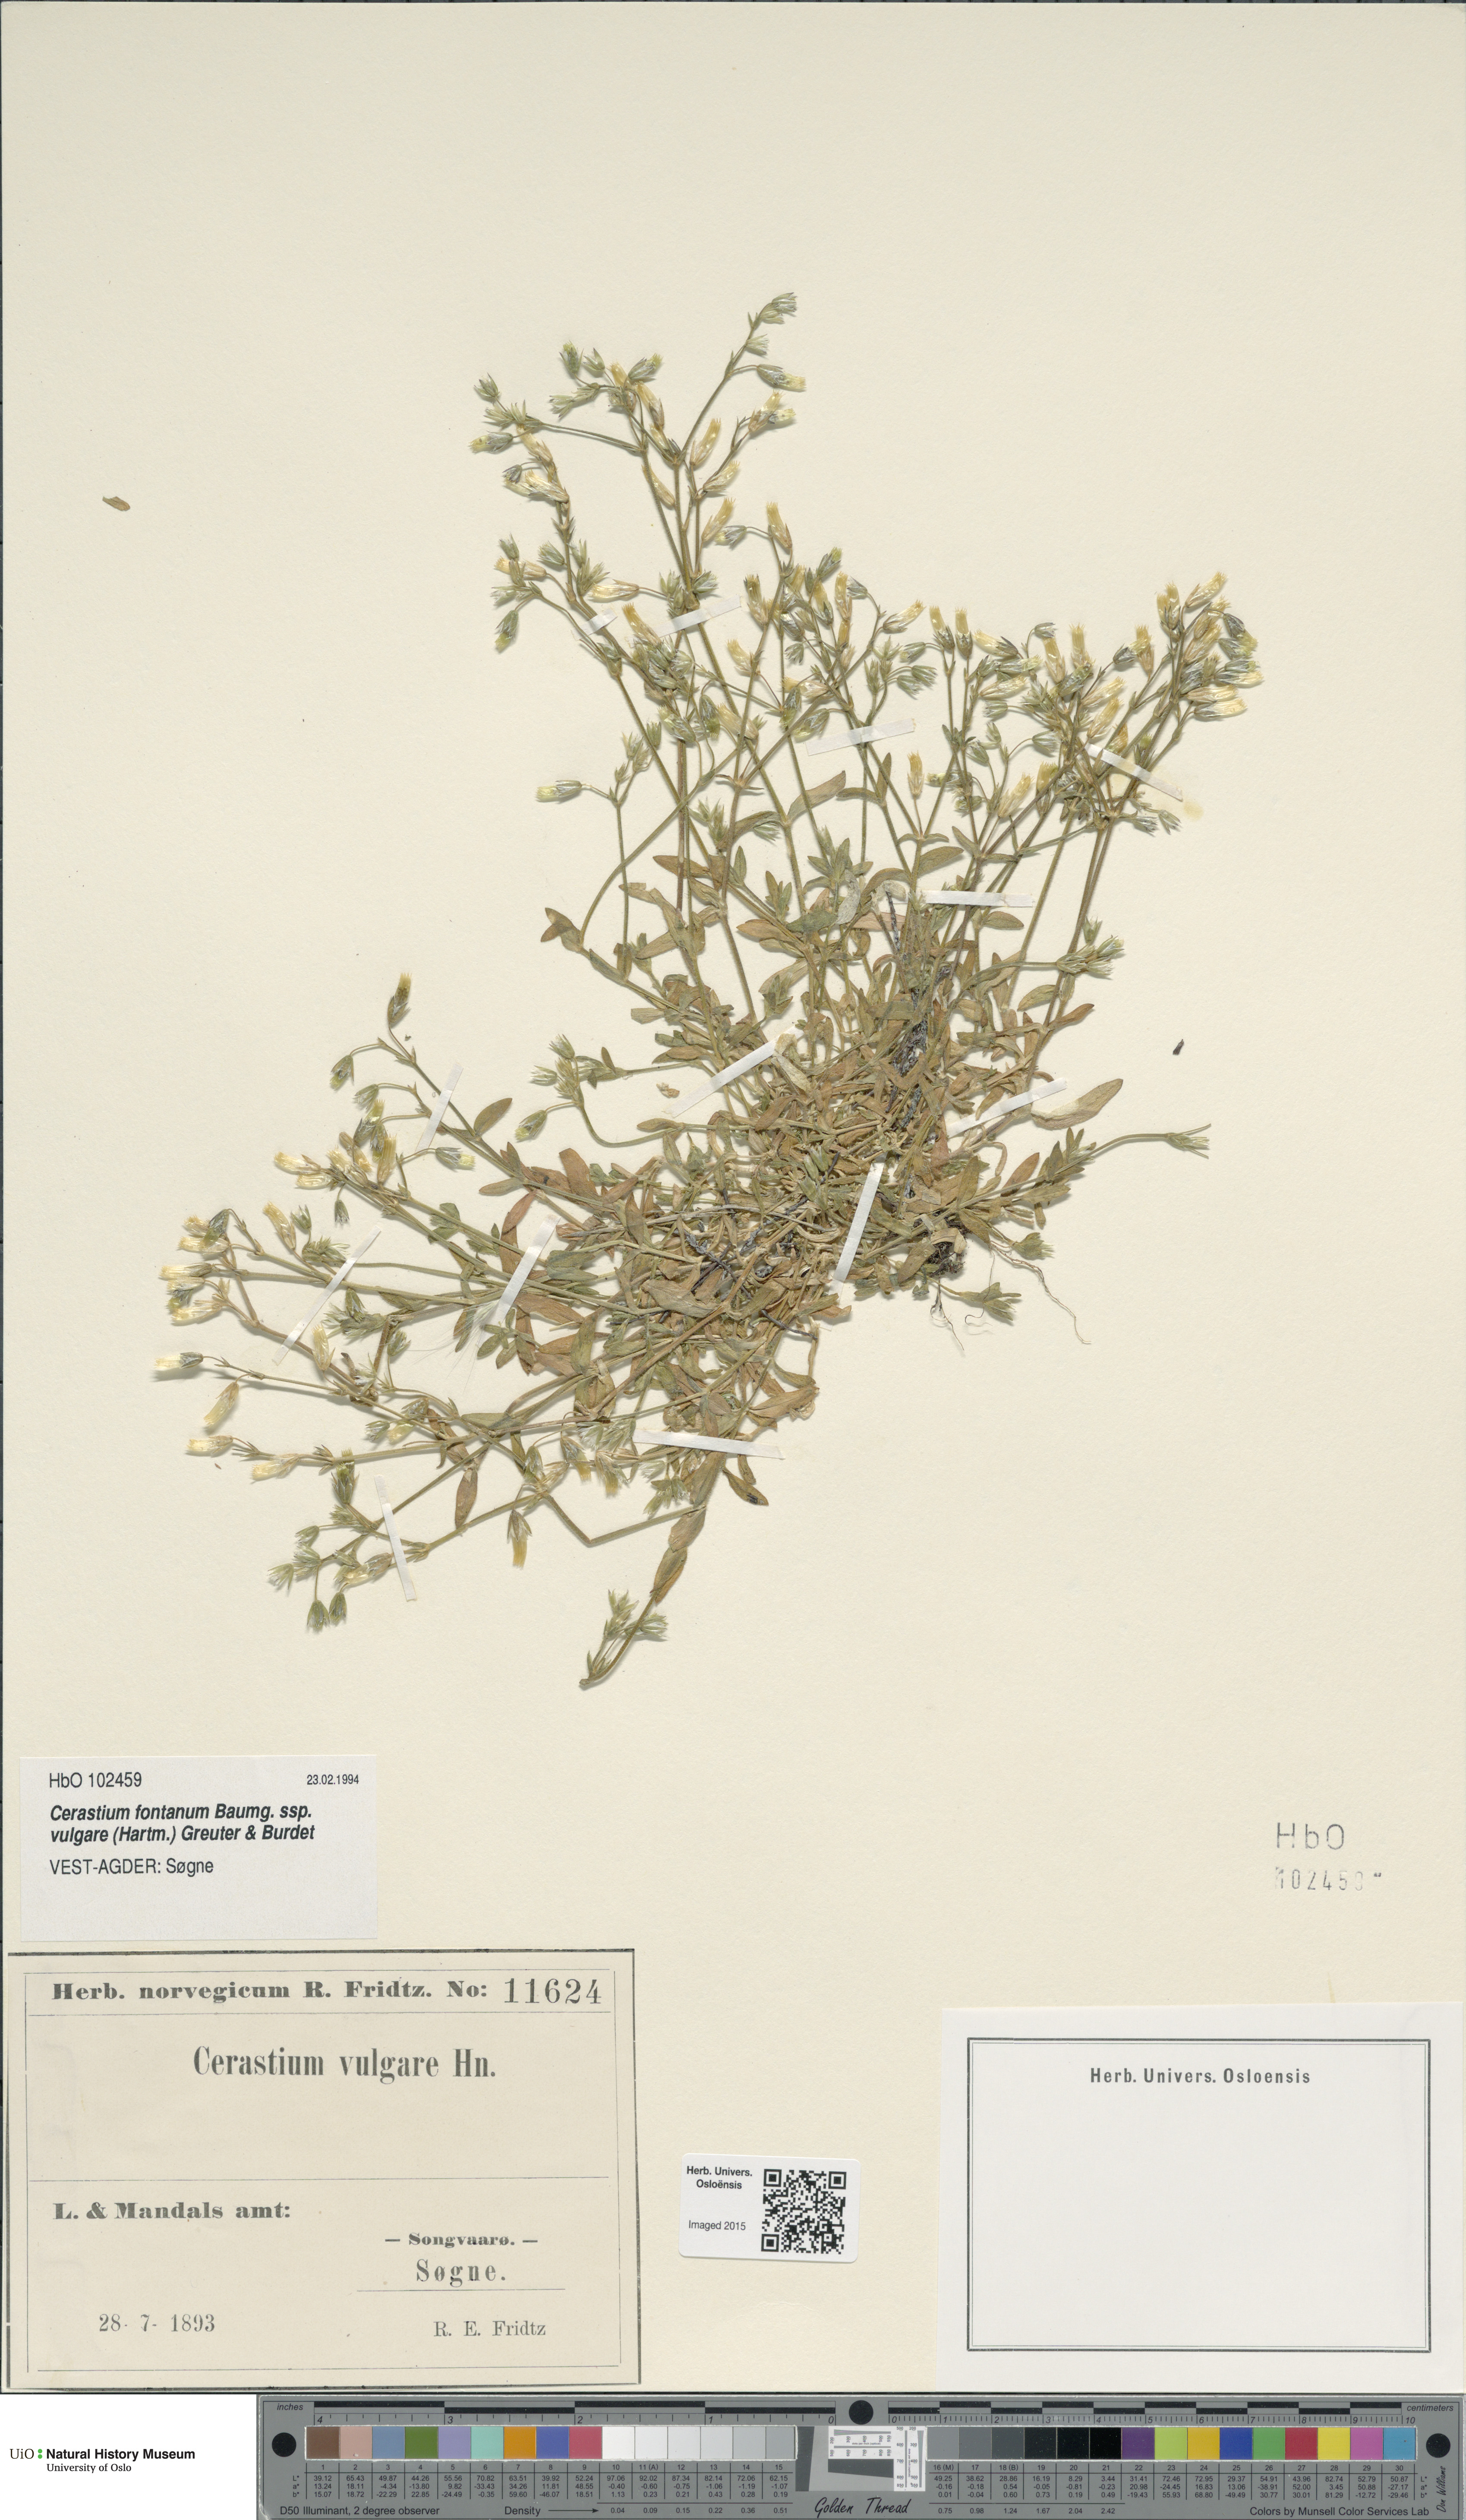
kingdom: Plantae
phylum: Tracheophyta
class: Magnoliopsida
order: Caryophyllales
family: Caryophyllaceae
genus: Cerastium
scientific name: Cerastium holosteoides
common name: Big chickweed
